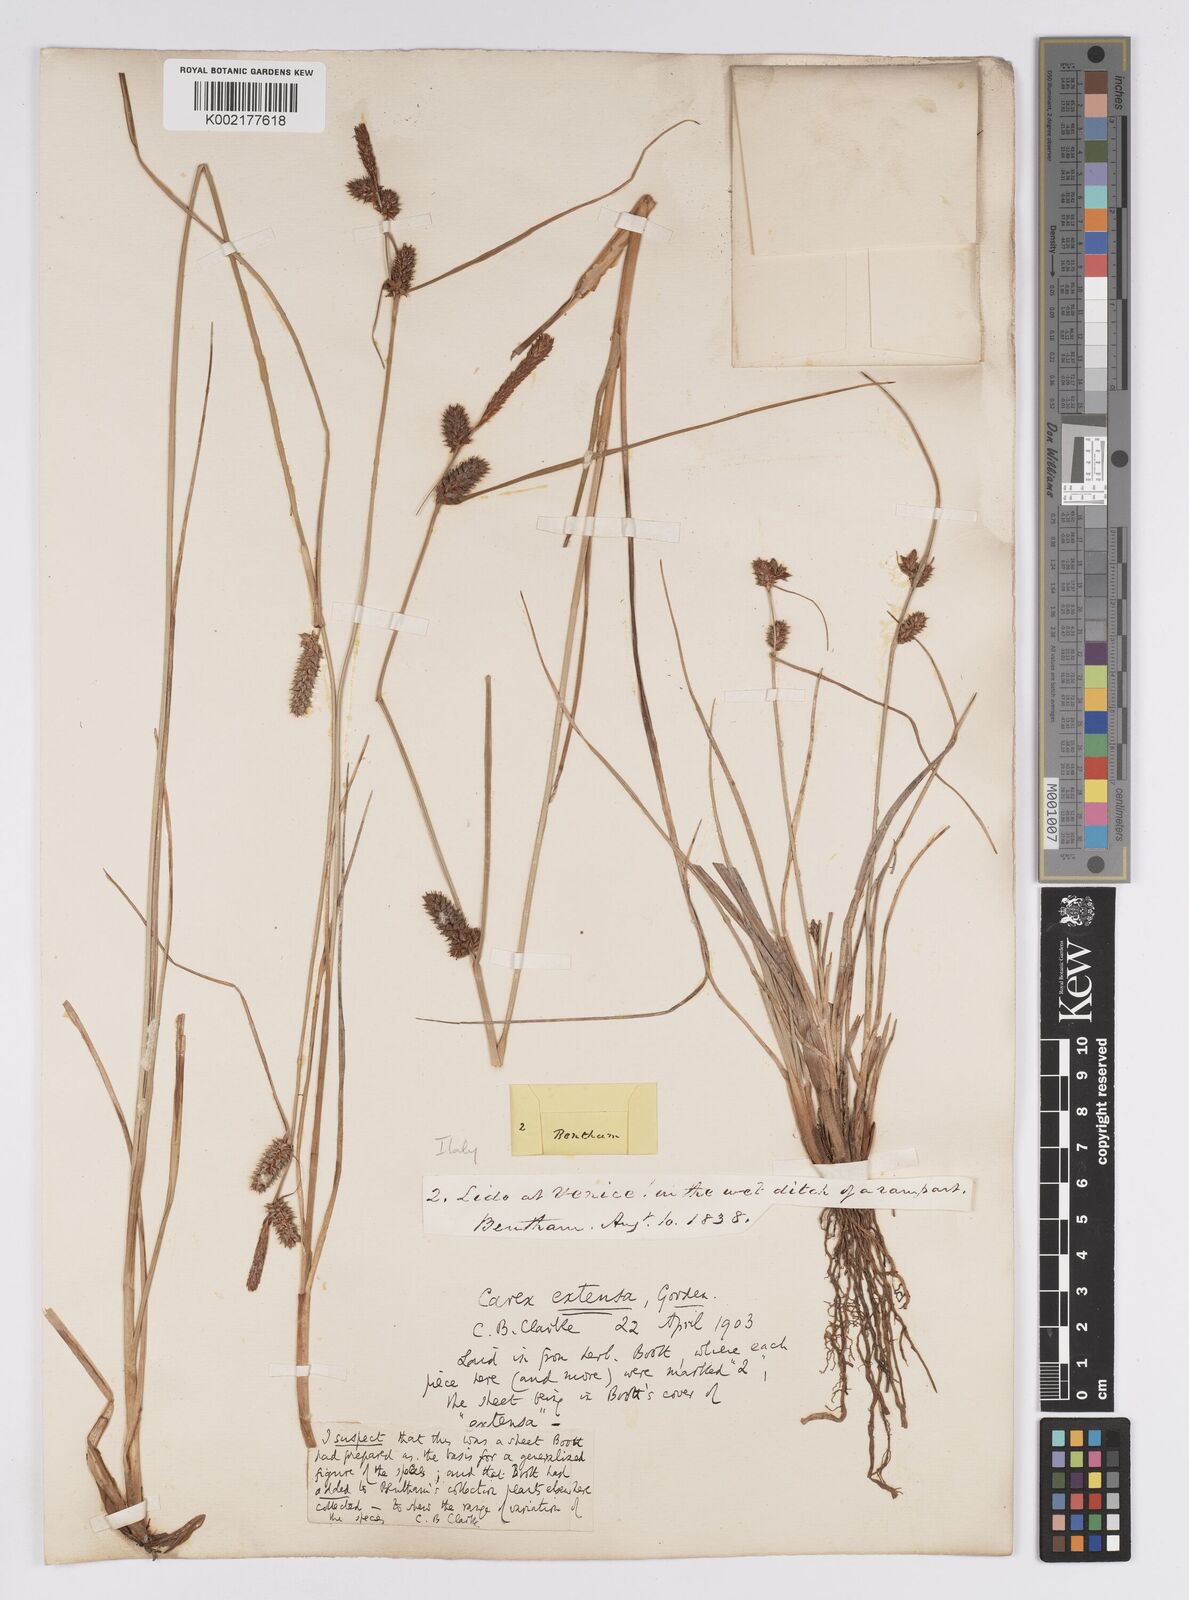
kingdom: Plantae
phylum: Tracheophyta
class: Liliopsida
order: Poales
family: Cyperaceae
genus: Carex
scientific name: Carex extensa
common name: Long-bracted sedge
